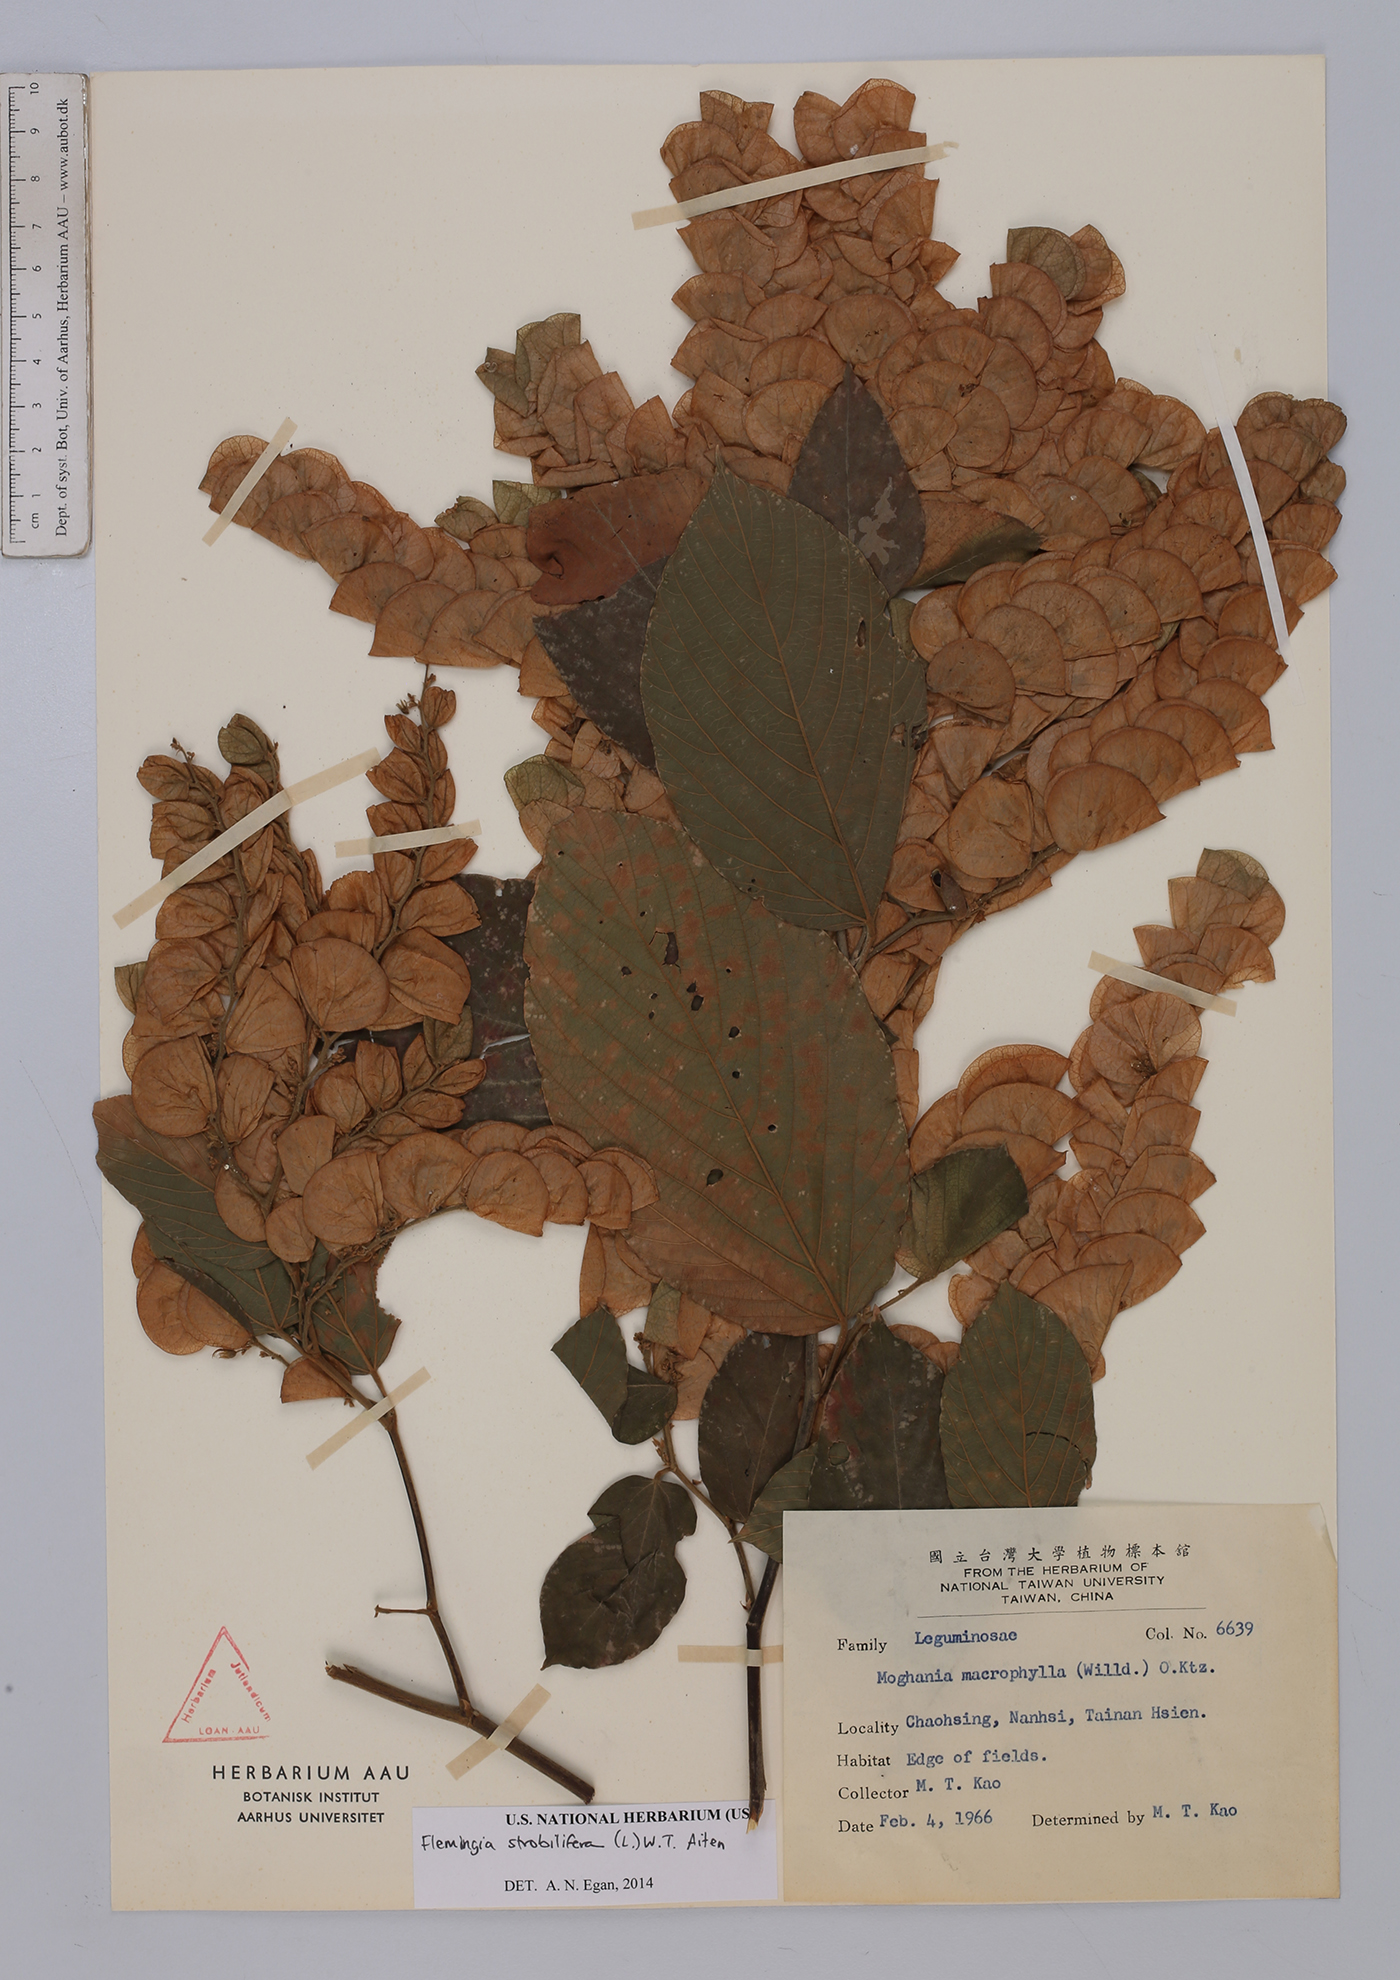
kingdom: Plantae
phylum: Tracheophyta
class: Magnoliopsida
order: Fabales
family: Fabaceae
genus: Flemingia
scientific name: Flemingia strobilifera
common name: Wild hops
